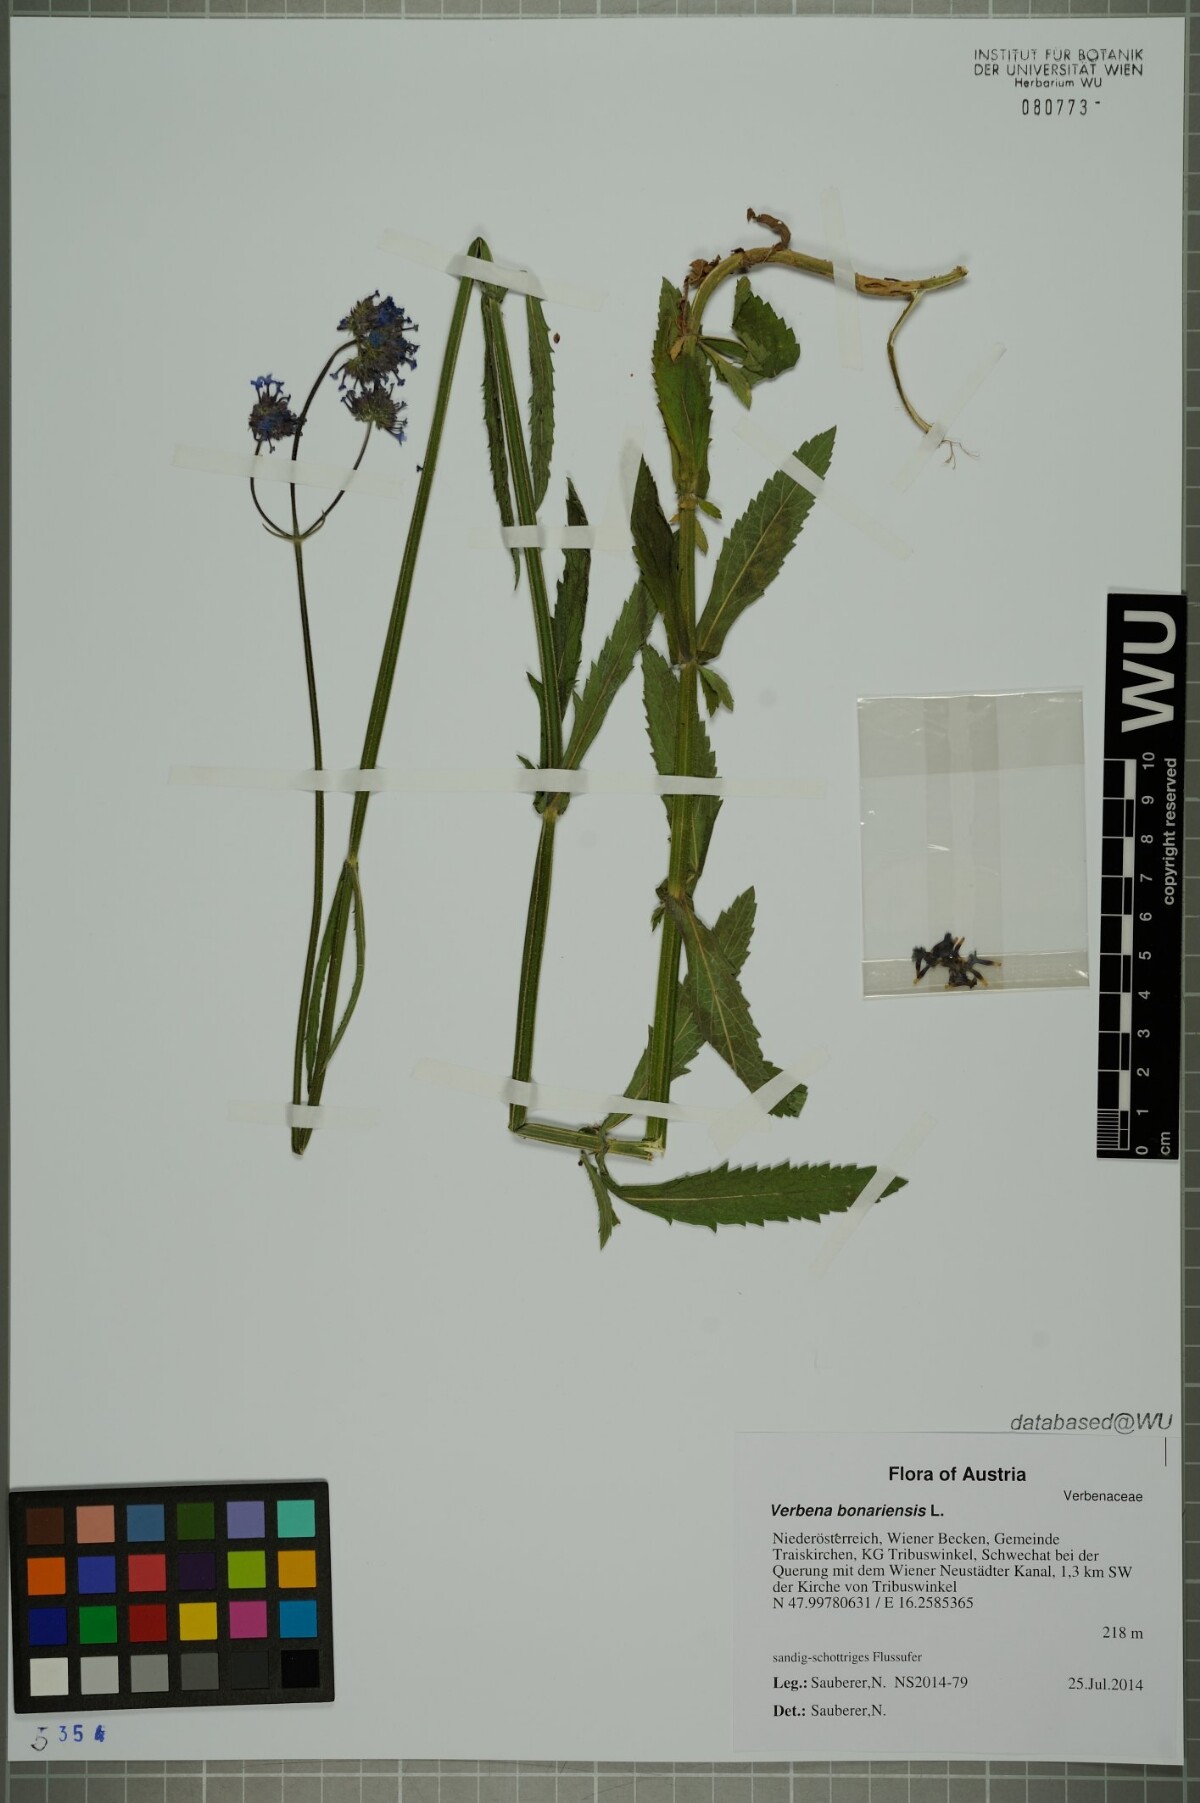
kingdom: Plantae
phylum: Tracheophyta
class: Magnoliopsida
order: Lamiales
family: Verbenaceae
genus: Verbena
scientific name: Verbena bonariensis
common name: Purpletop vervain
